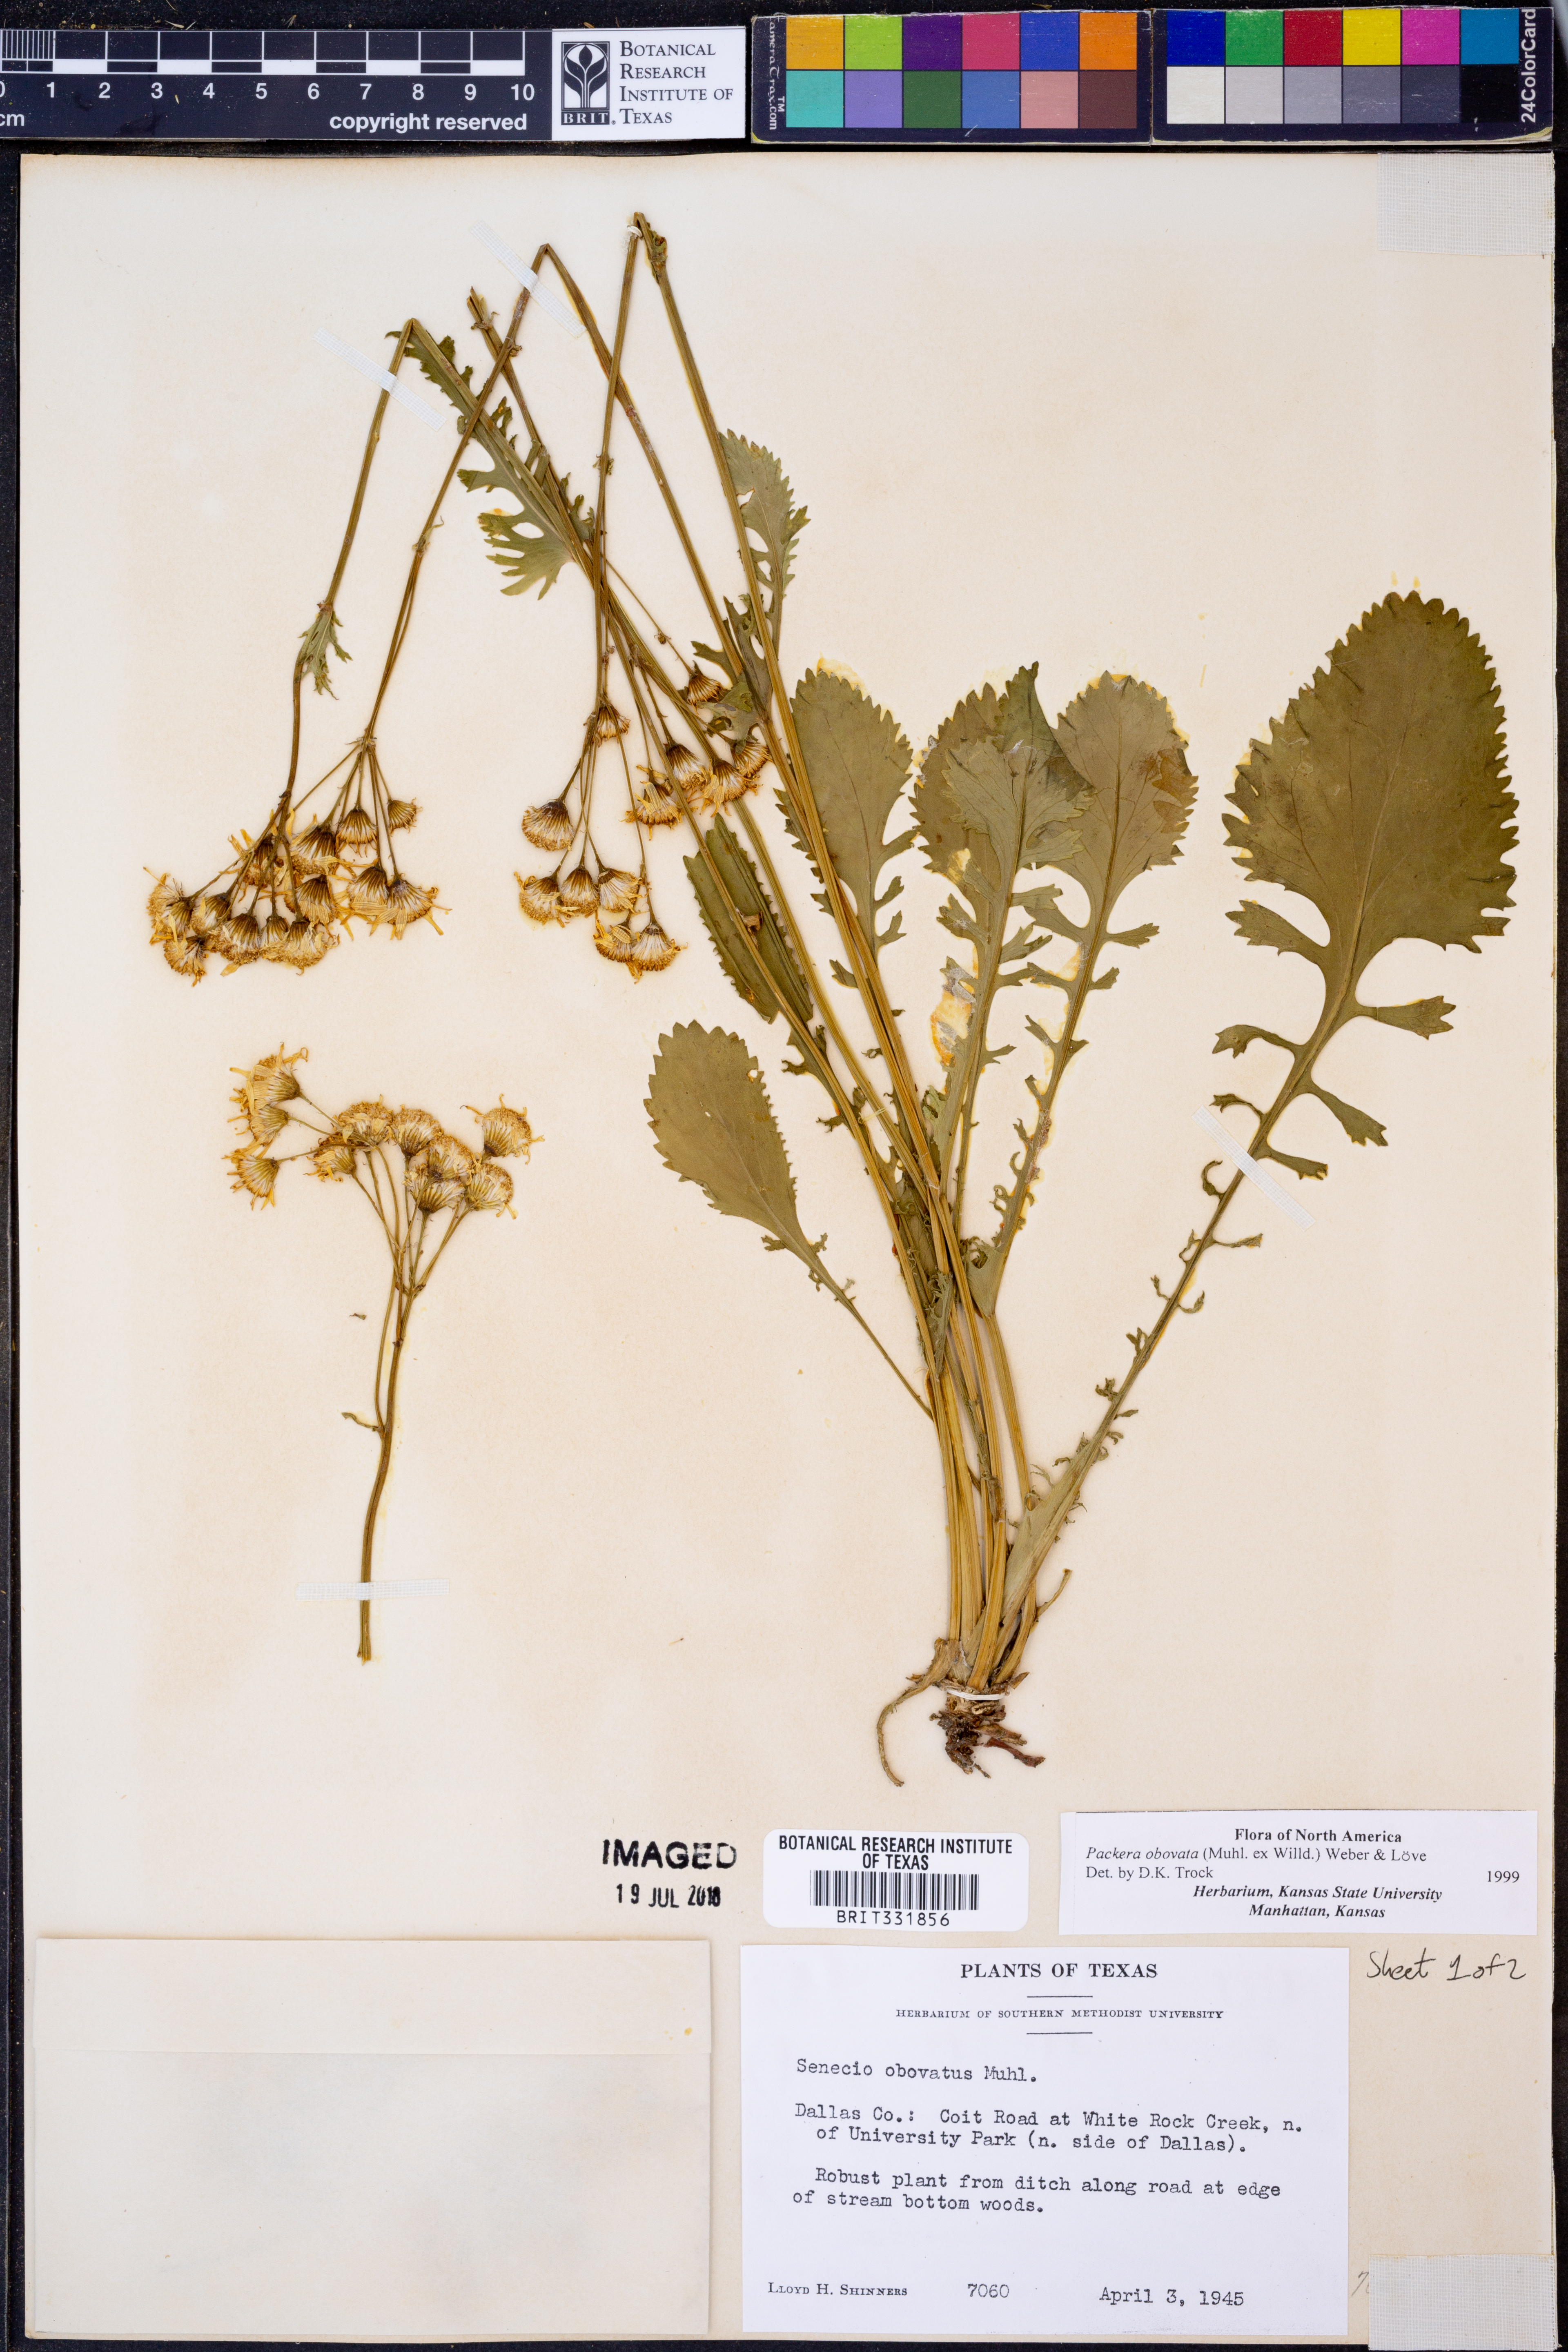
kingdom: Plantae
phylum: Tracheophyta
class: Magnoliopsida
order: Asterales
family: Asteraceae
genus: Packera
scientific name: Packera obovata
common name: Round-leaf ragwort
